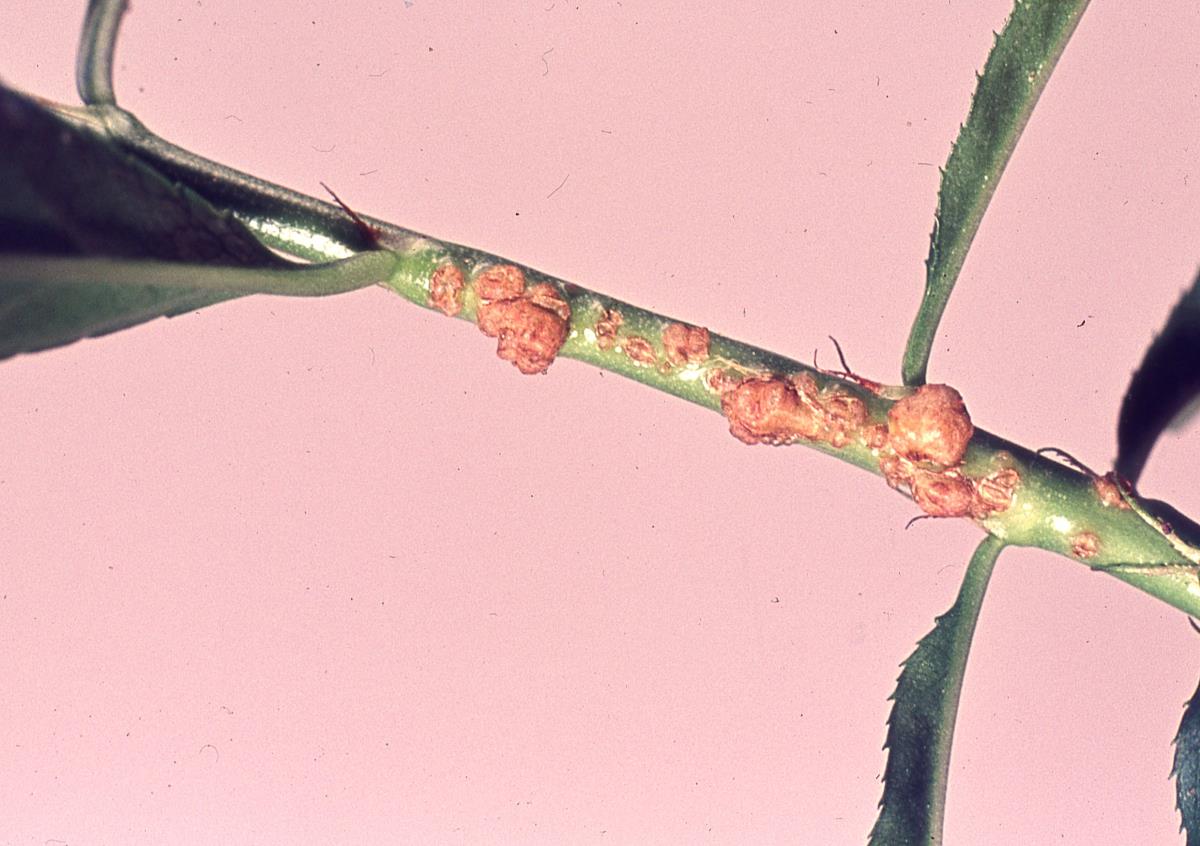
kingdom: Bacteria
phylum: Proteobacteria
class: Alphaproteobacteria
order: Rhizobiales
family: Rhizobiaceae
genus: Rhizobium
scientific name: Rhizobium rhizogenes
